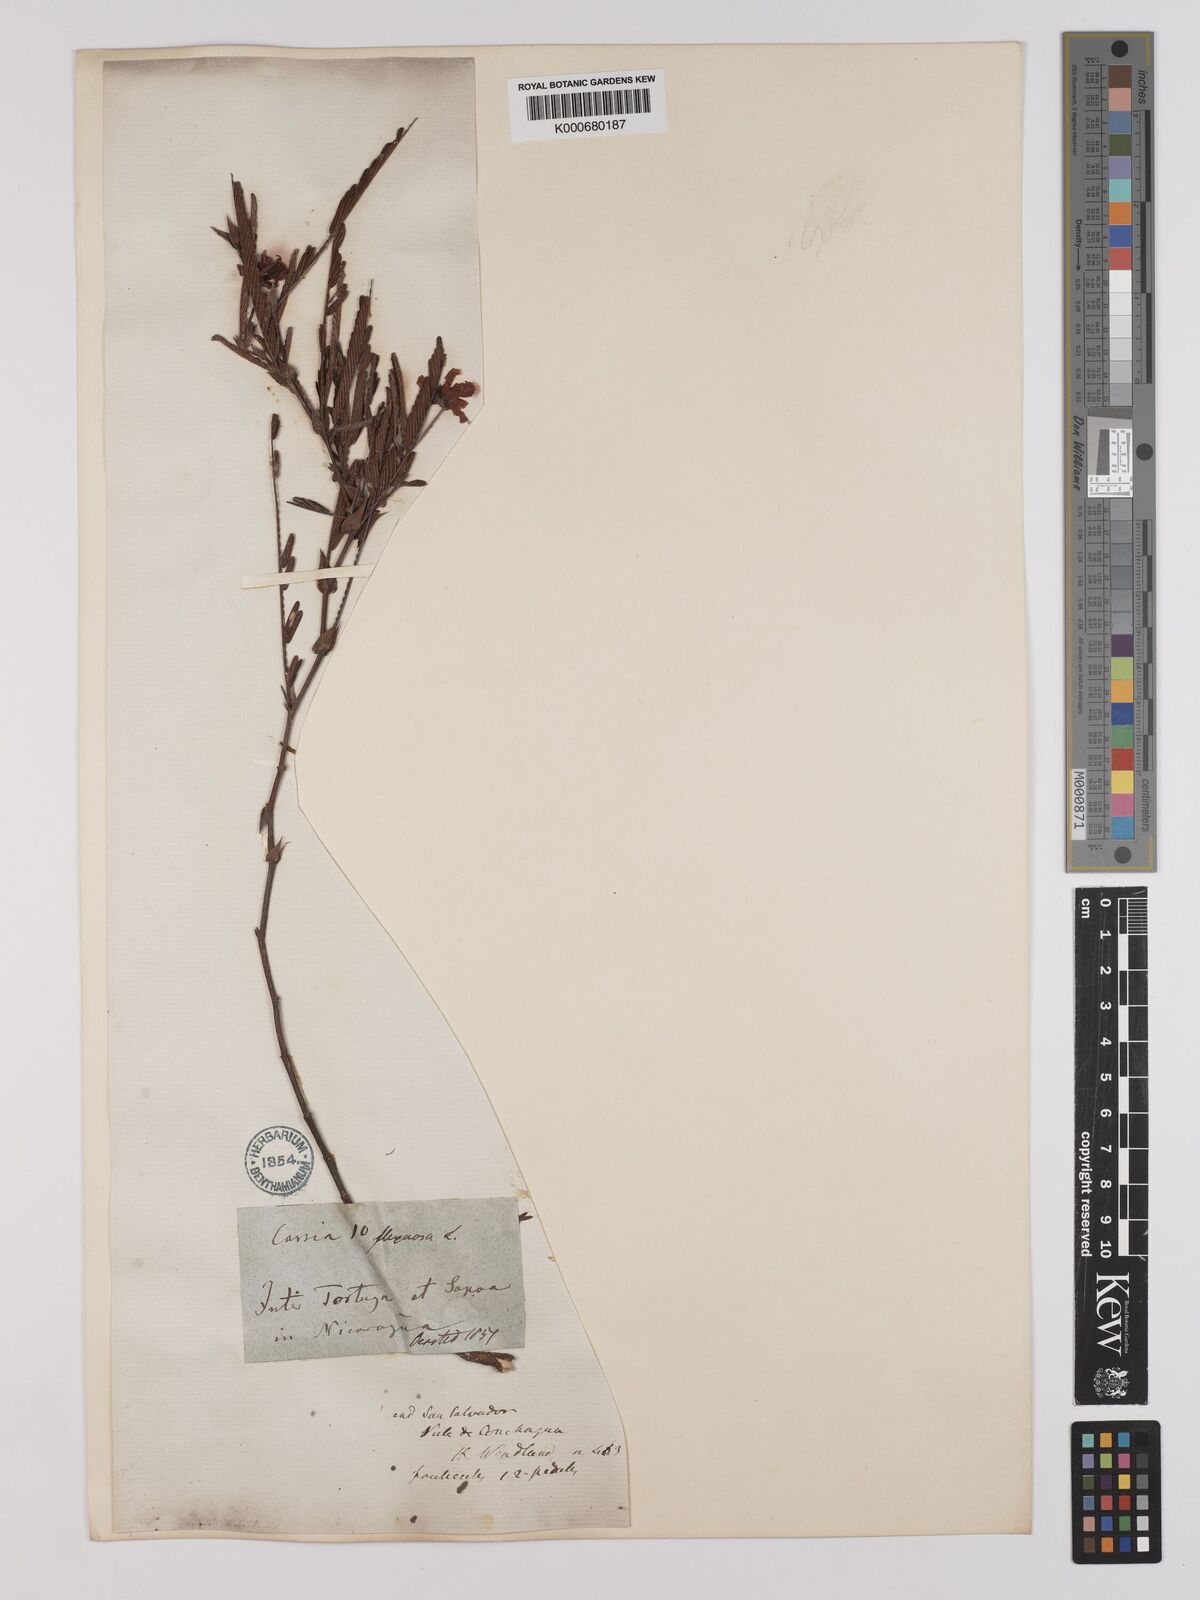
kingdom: Plantae
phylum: Tracheophyta
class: Magnoliopsida
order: Fabales
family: Fabaceae
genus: Chamaecrista
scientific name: Chamaecrista flexuosa
